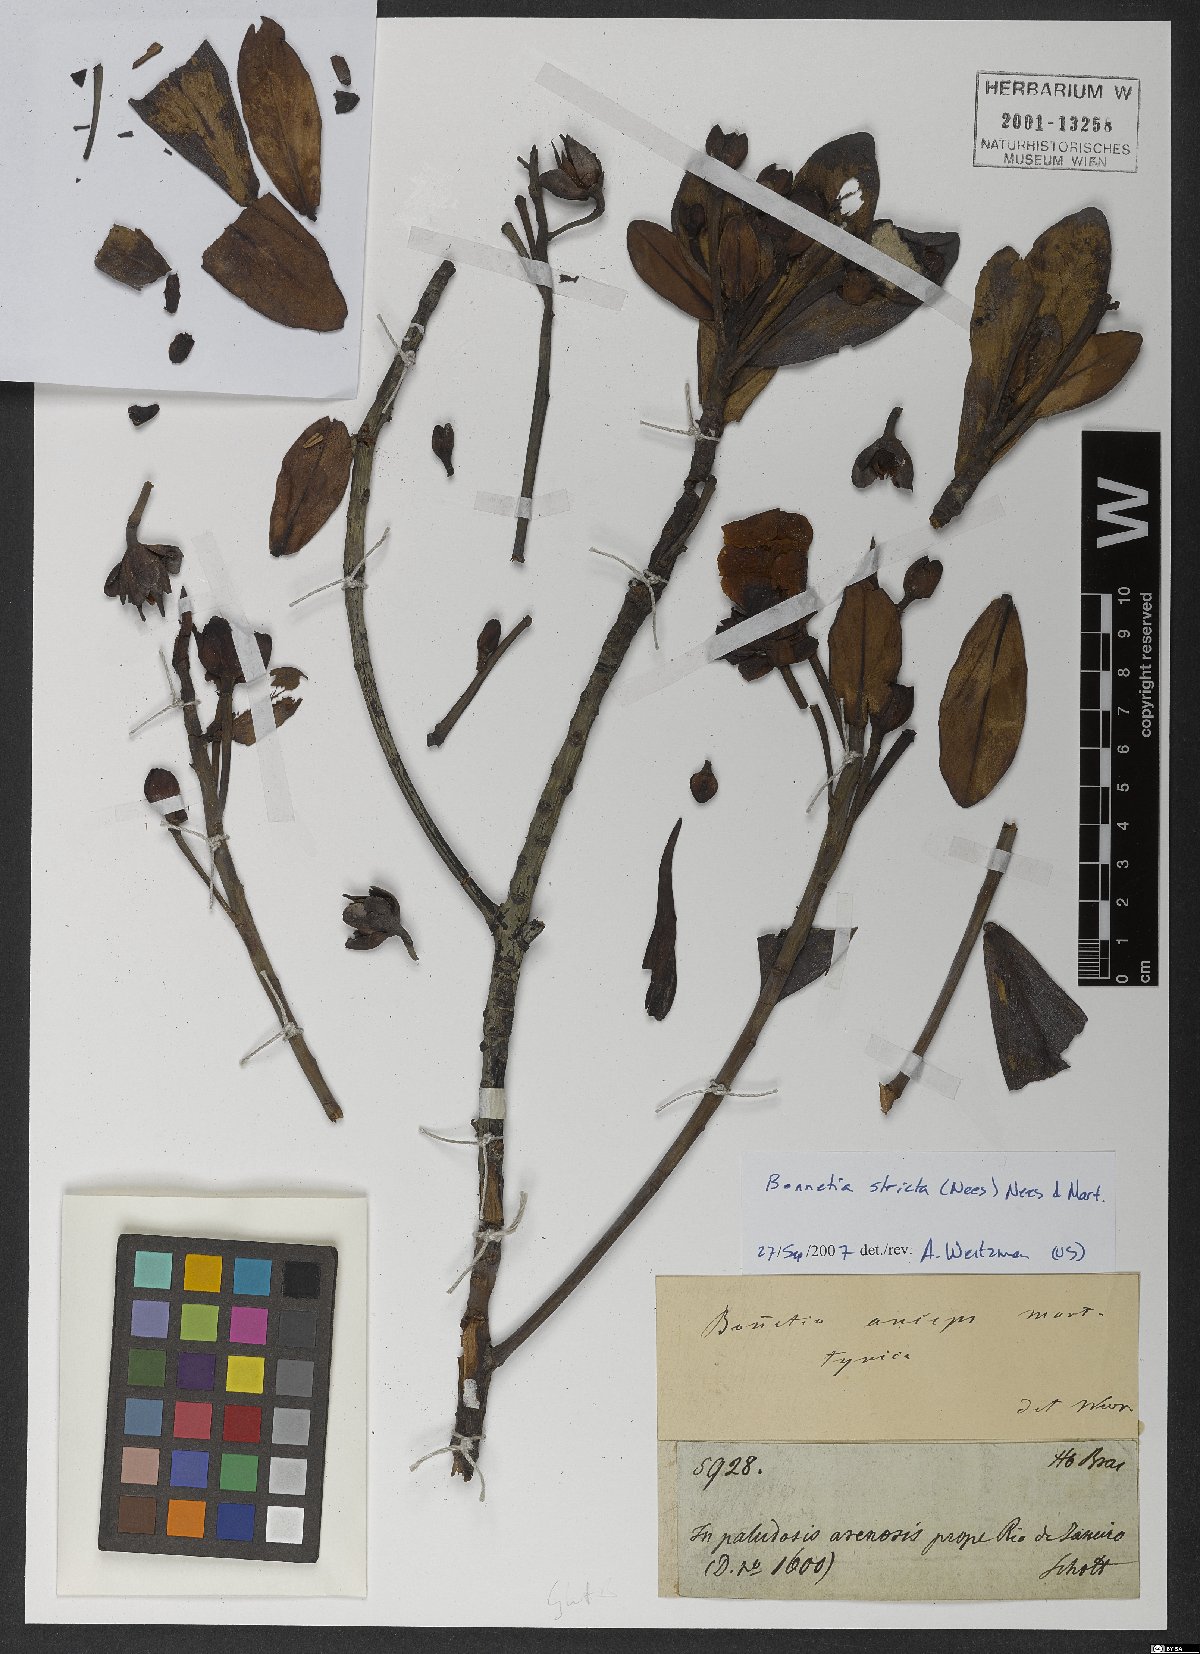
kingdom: Plantae
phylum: Tracheophyta
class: Magnoliopsida
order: Malpighiales
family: Bonnetiaceae
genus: Bonnetia
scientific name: Bonnetia stricta
